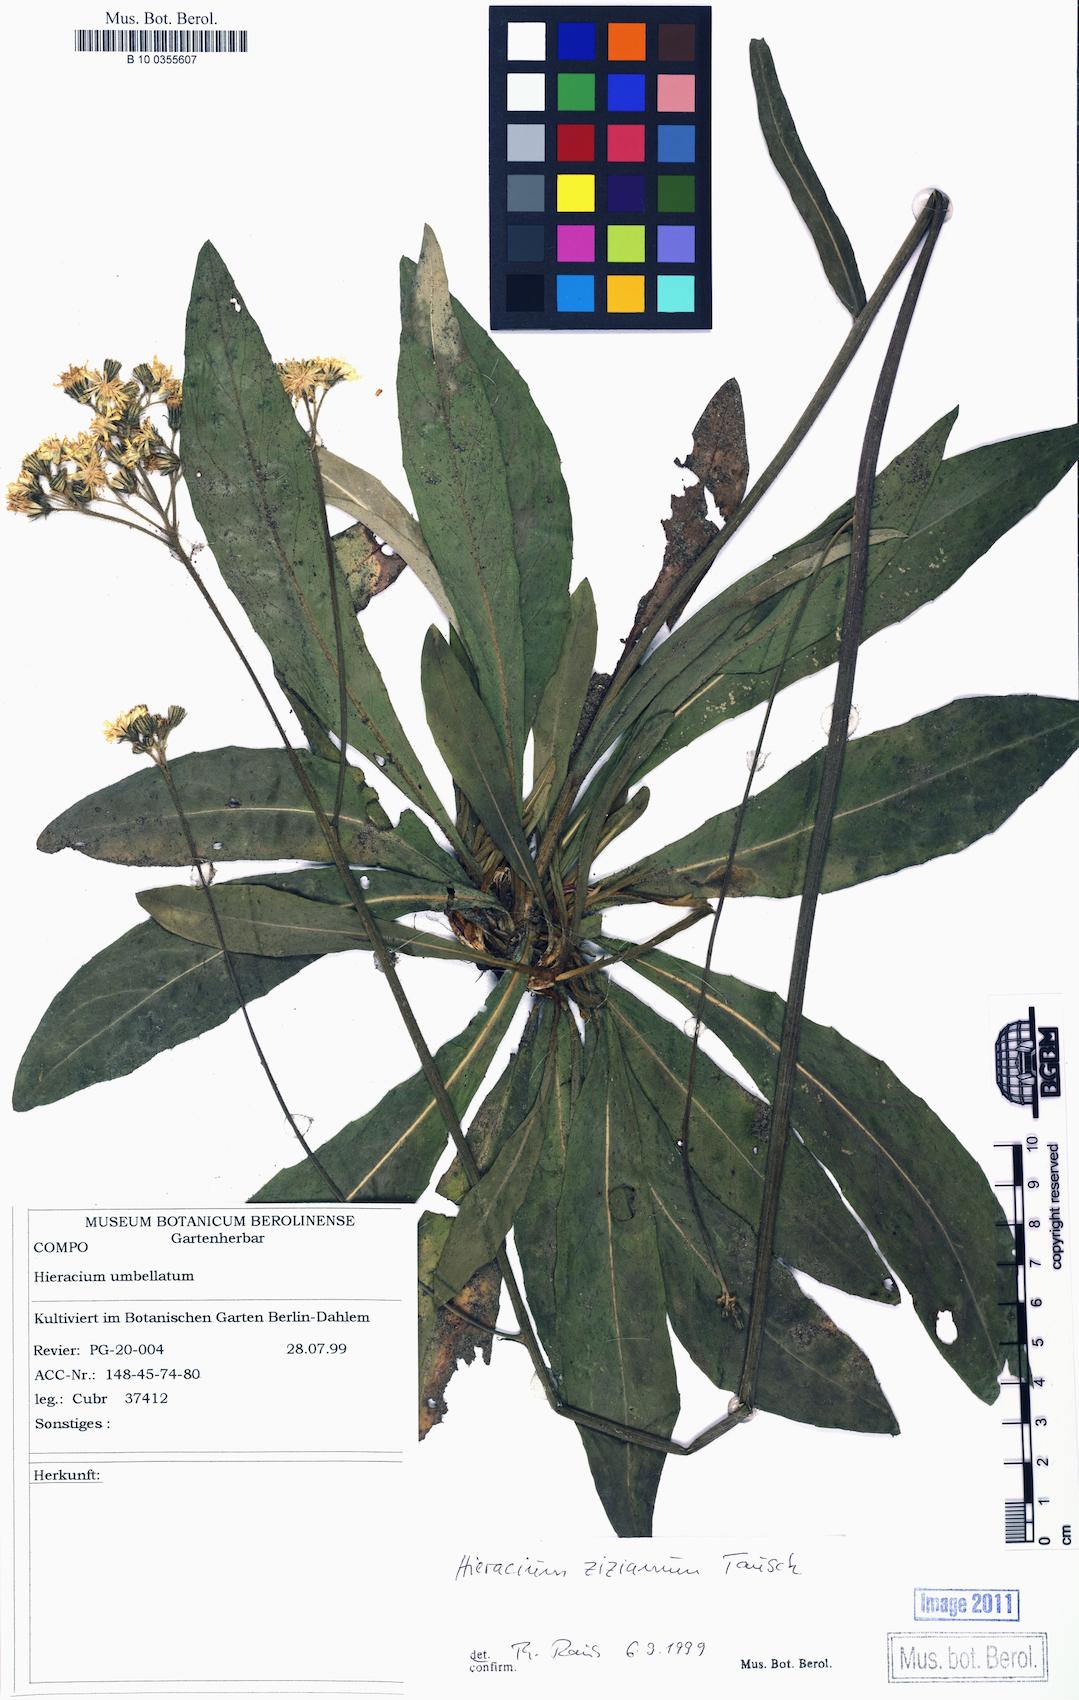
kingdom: Plantae
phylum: Tracheophyta
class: Magnoliopsida
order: Asterales
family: Asteraceae
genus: Pilosella
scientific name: Pilosella ziziana
